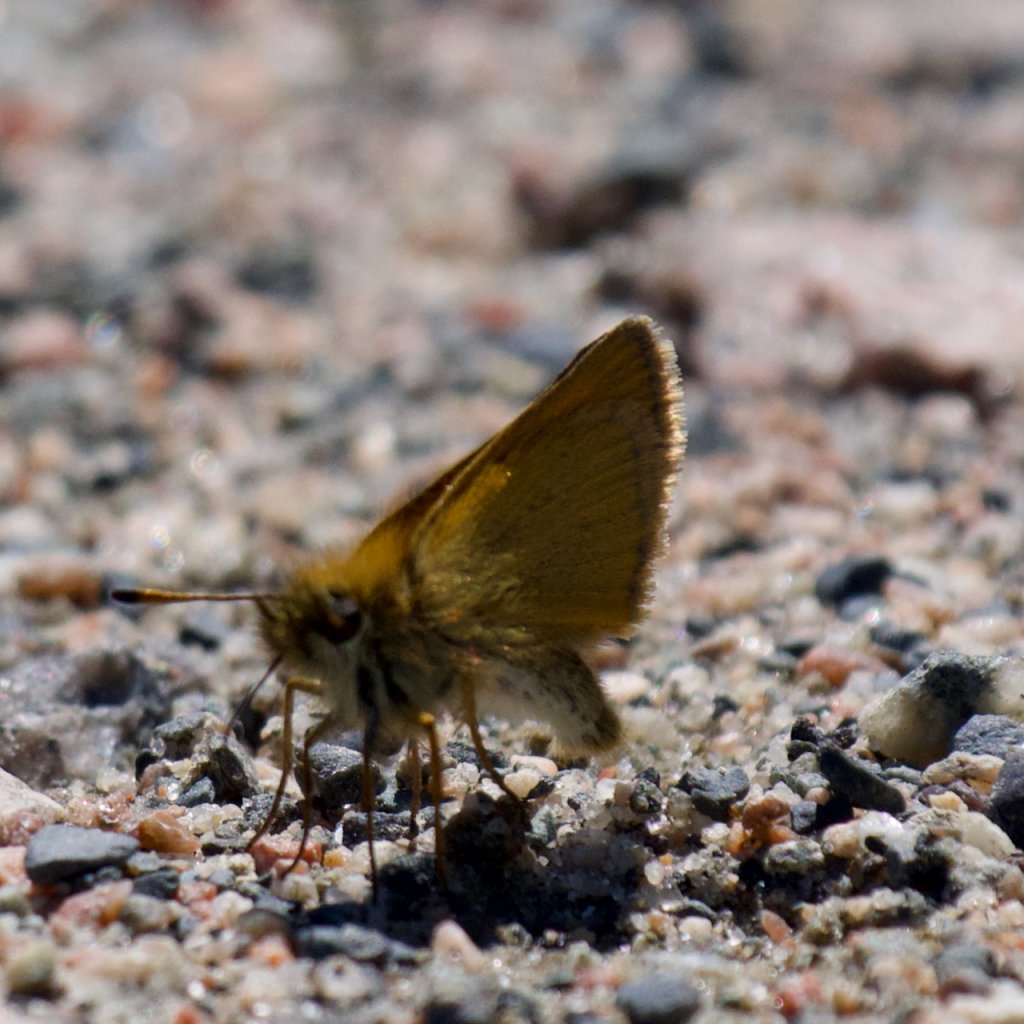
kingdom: Animalia
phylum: Arthropoda
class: Insecta
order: Lepidoptera
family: Hesperiidae
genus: Thymelicus
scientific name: Thymelicus lineola
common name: European Skipper
